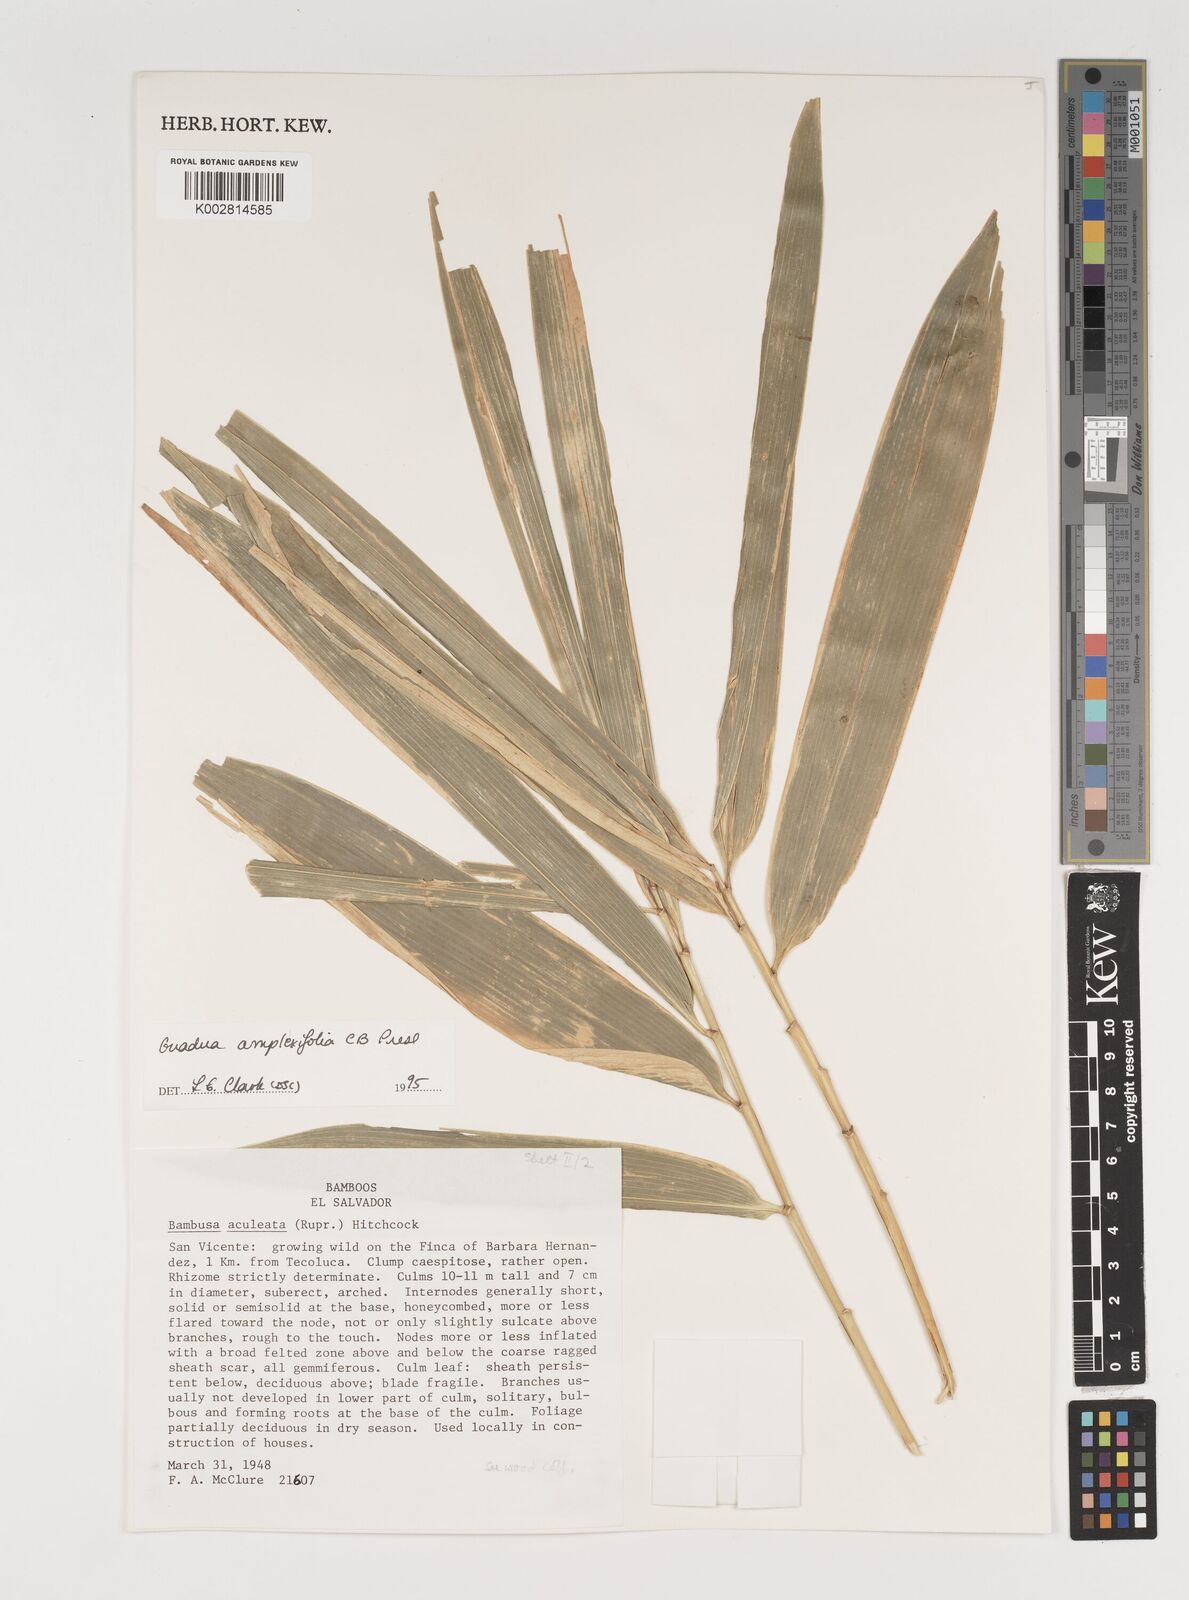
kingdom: Plantae
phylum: Tracheophyta
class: Liliopsida
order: Poales
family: Poaceae
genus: Guadua
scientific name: Guadua amplexifolia
